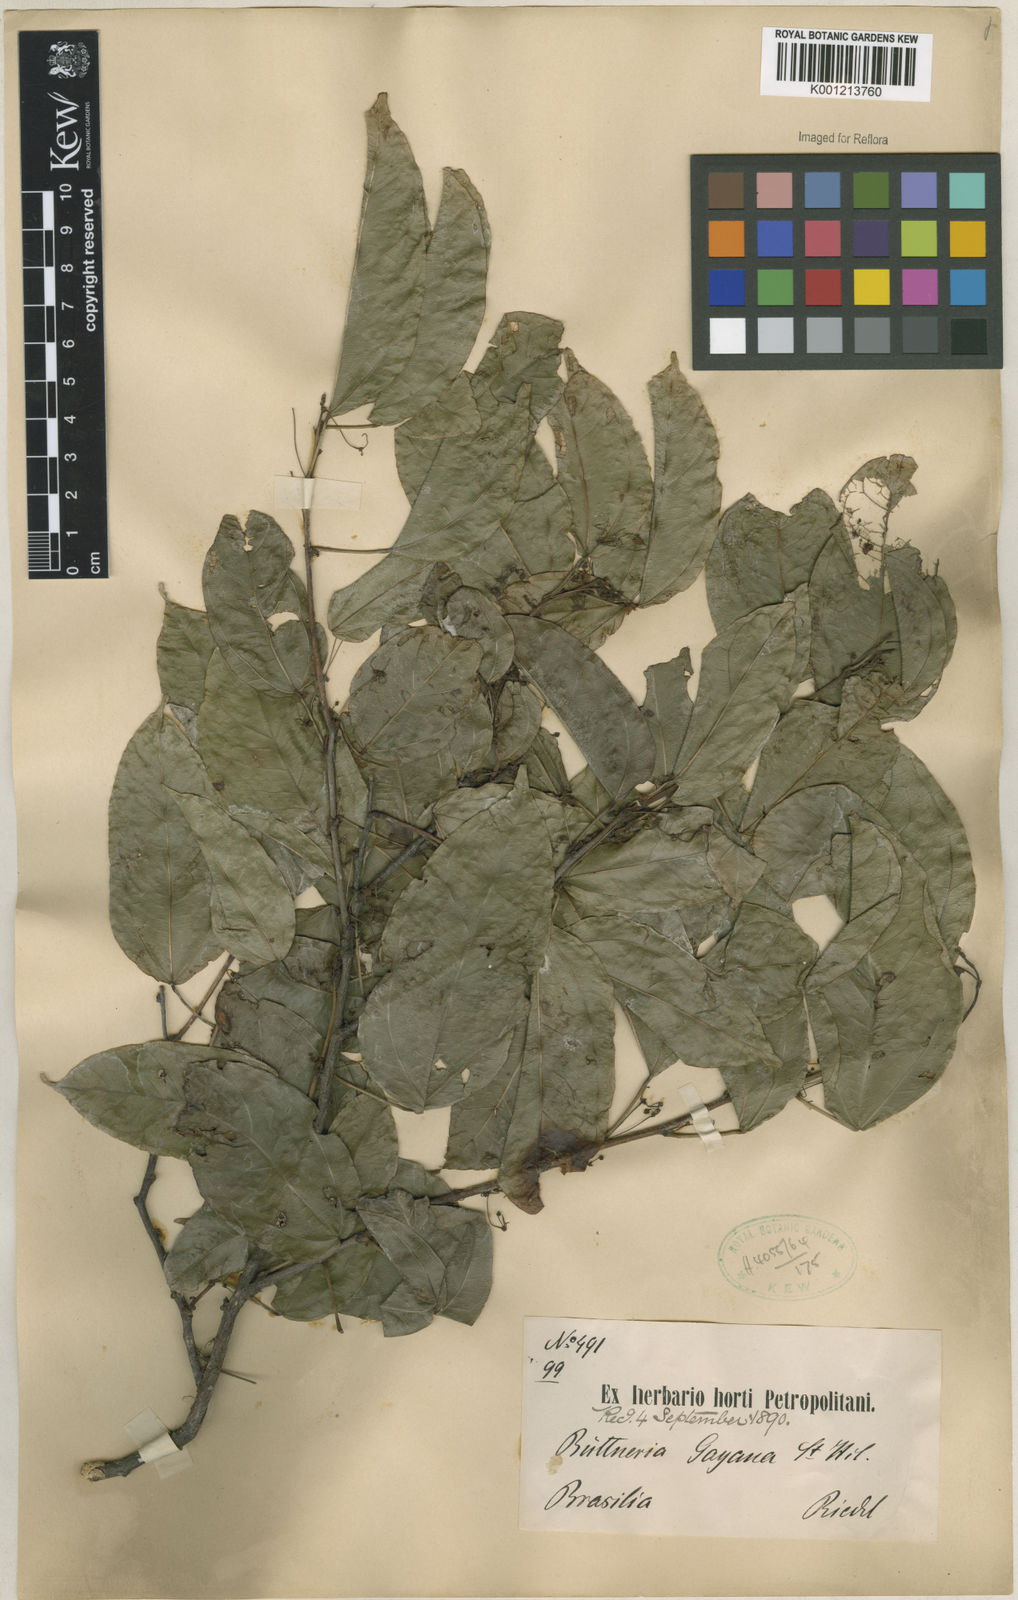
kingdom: Plantae
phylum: Tracheophyta
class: Magnoliopsida
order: Malvales
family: Malvaceae
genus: Byttneria
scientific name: Byttneria gayana
